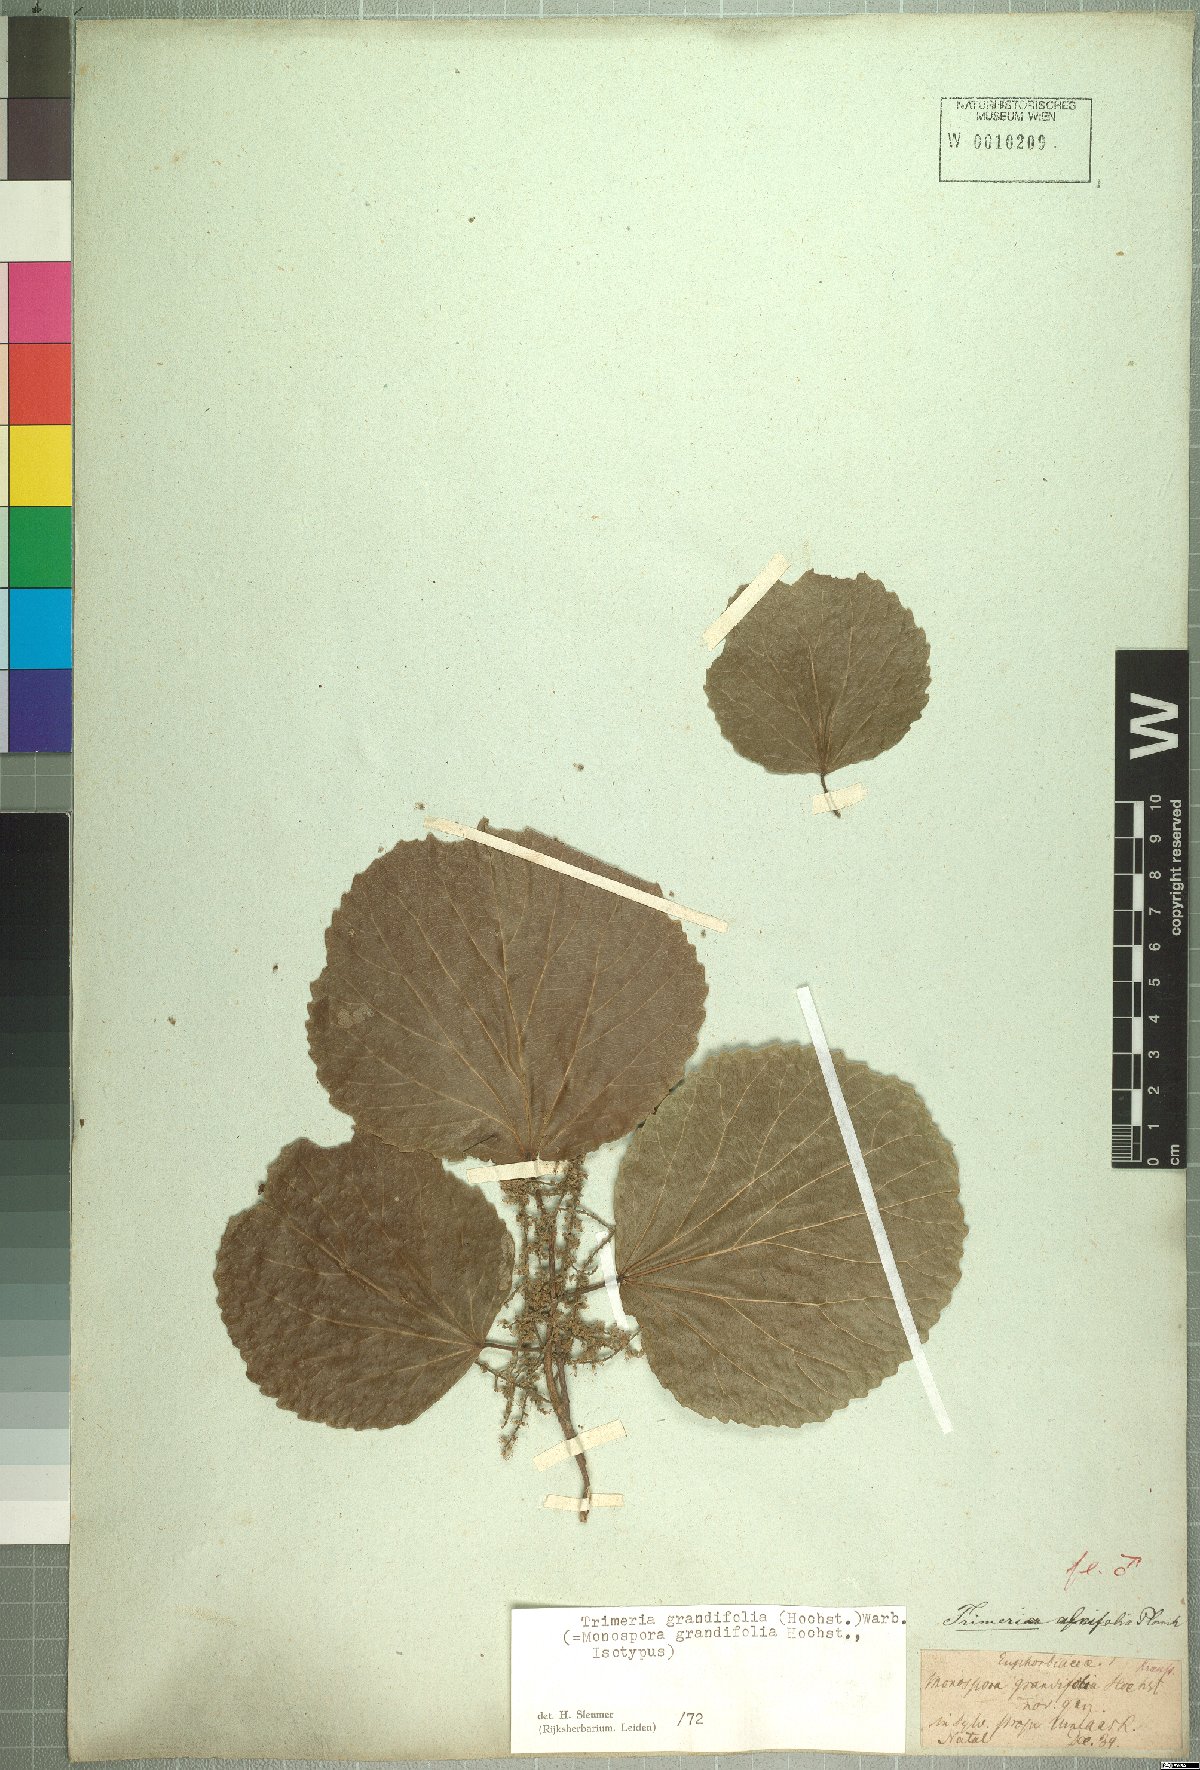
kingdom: Plantae
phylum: Tracheophyta
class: Magnoliopsida
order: Malpighiales
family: Salicaceae
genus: Trimeria
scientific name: Trimeria grandifolia
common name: Wild mulberry
